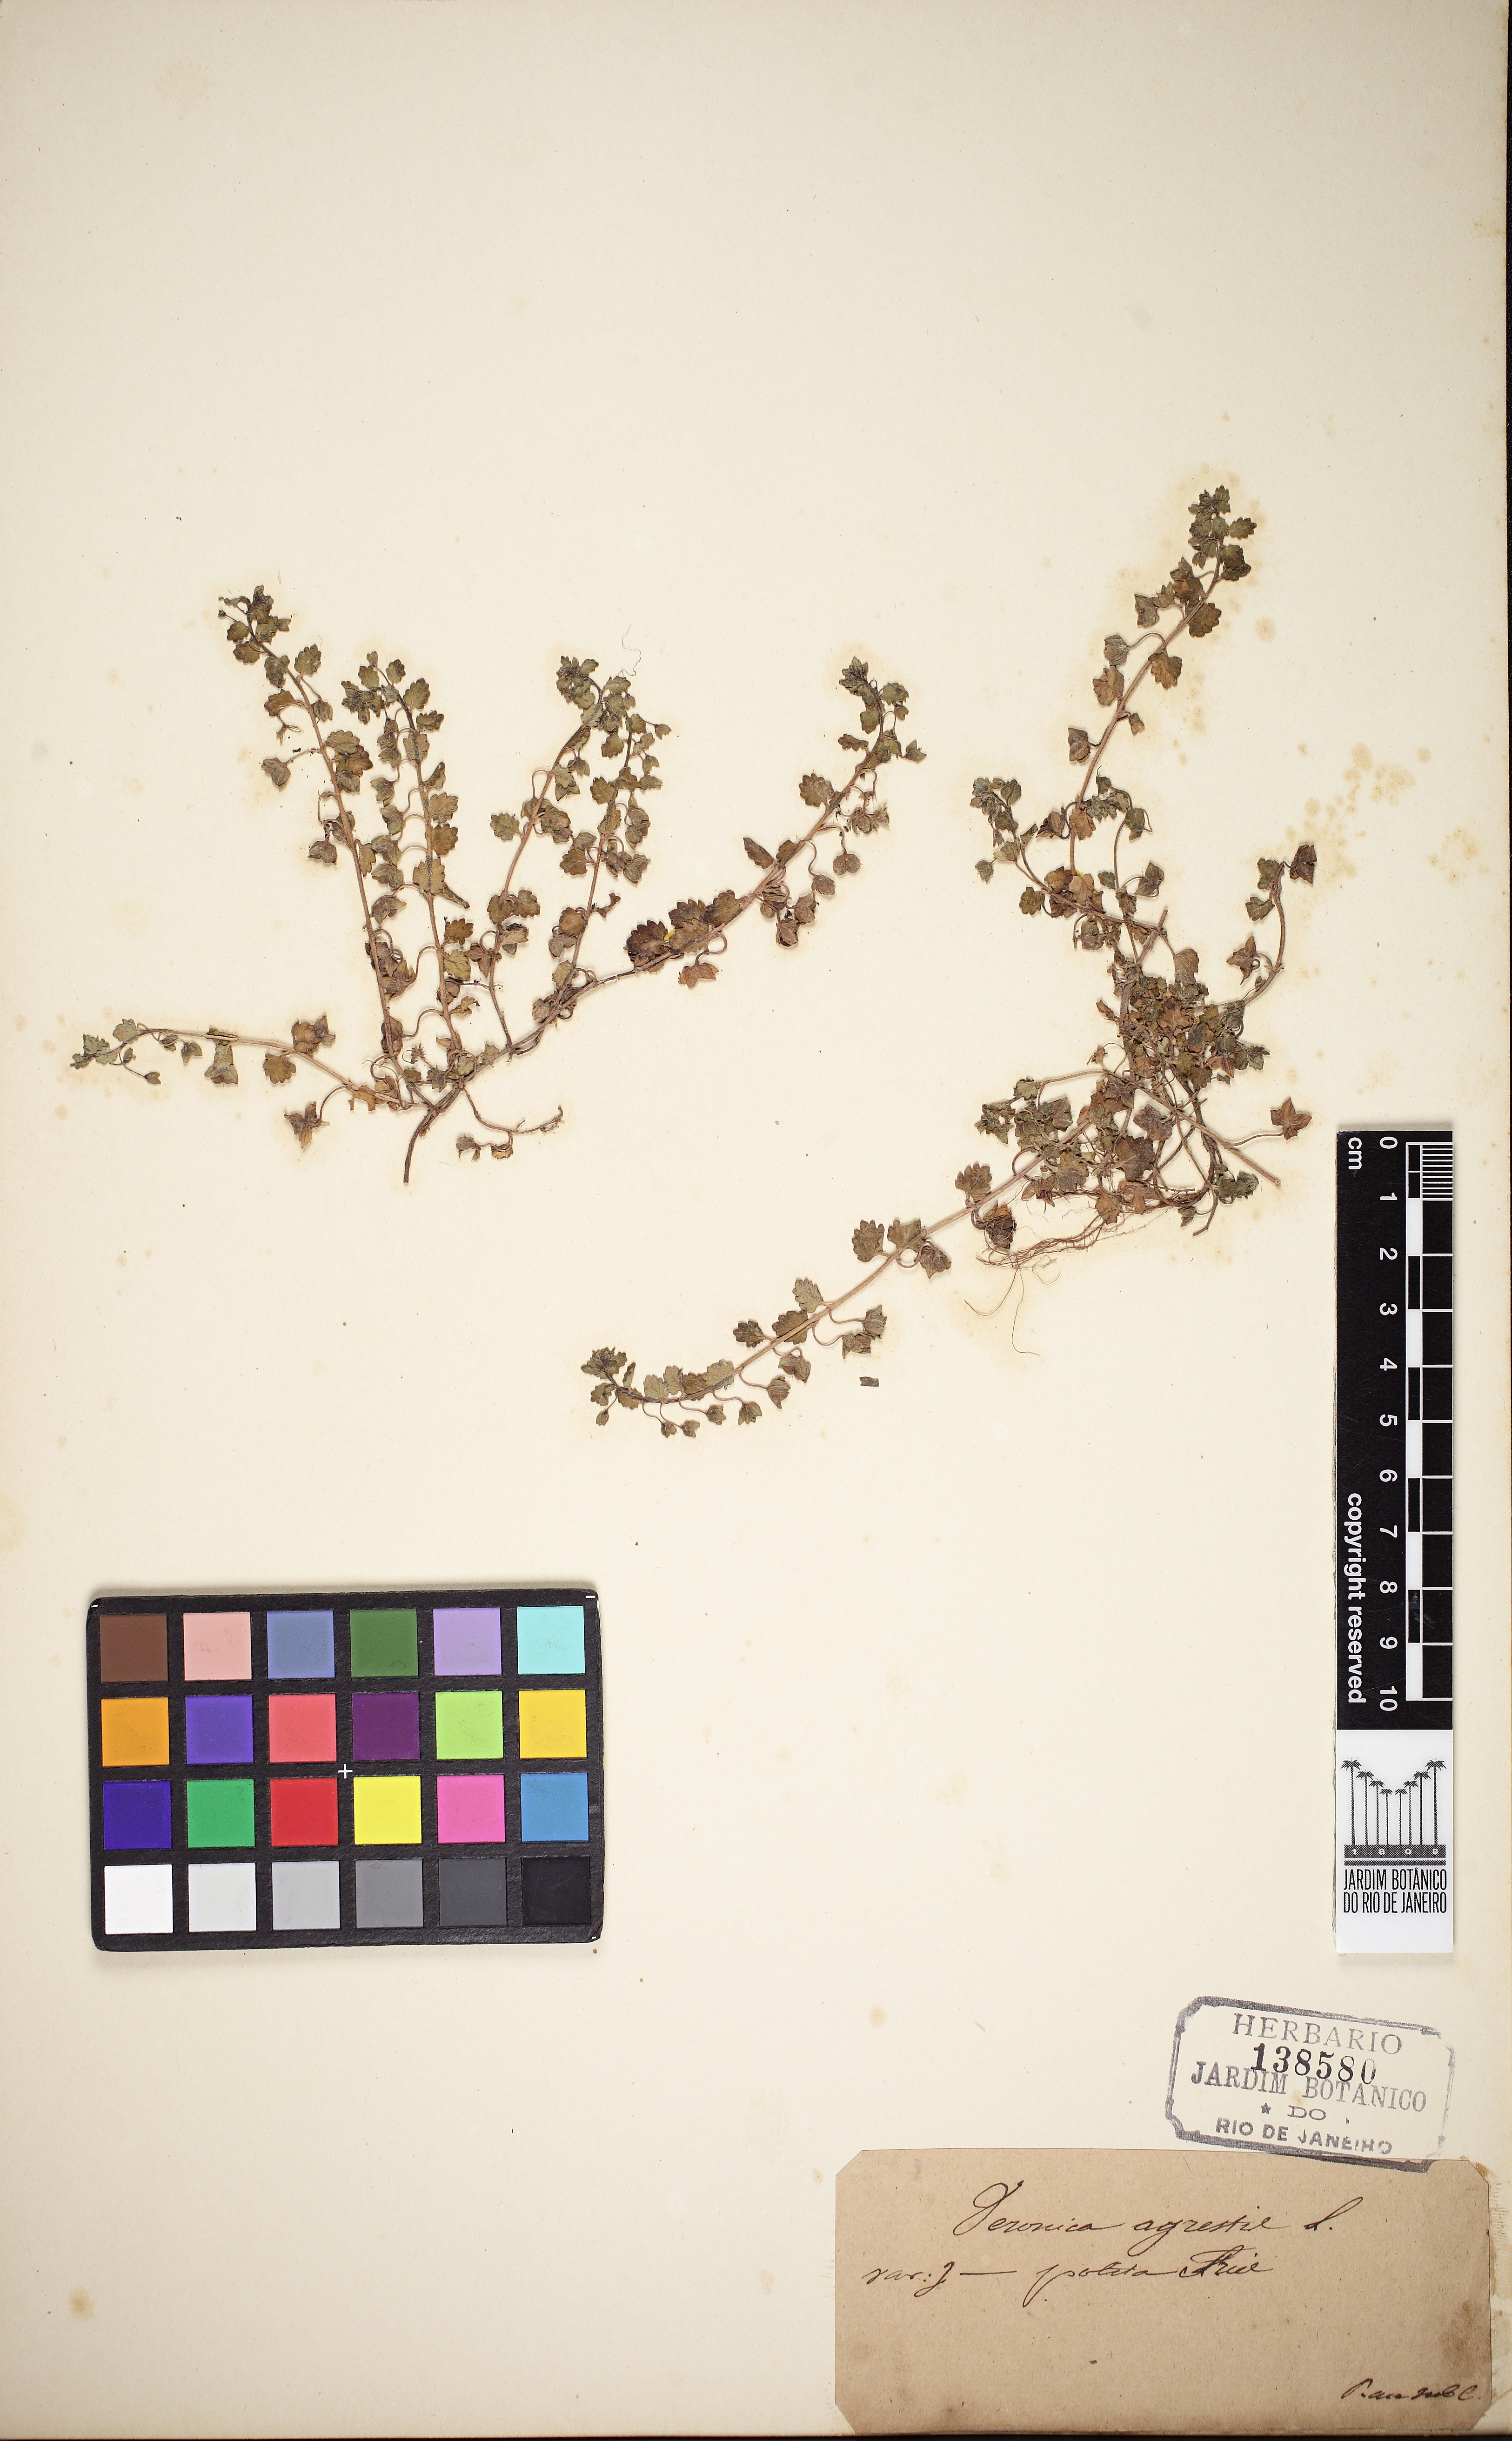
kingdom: Plantae
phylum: Tracheophyta
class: Magnoliopsida
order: Lamiales
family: Scrophulariaceae
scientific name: Scrophulariaceae
